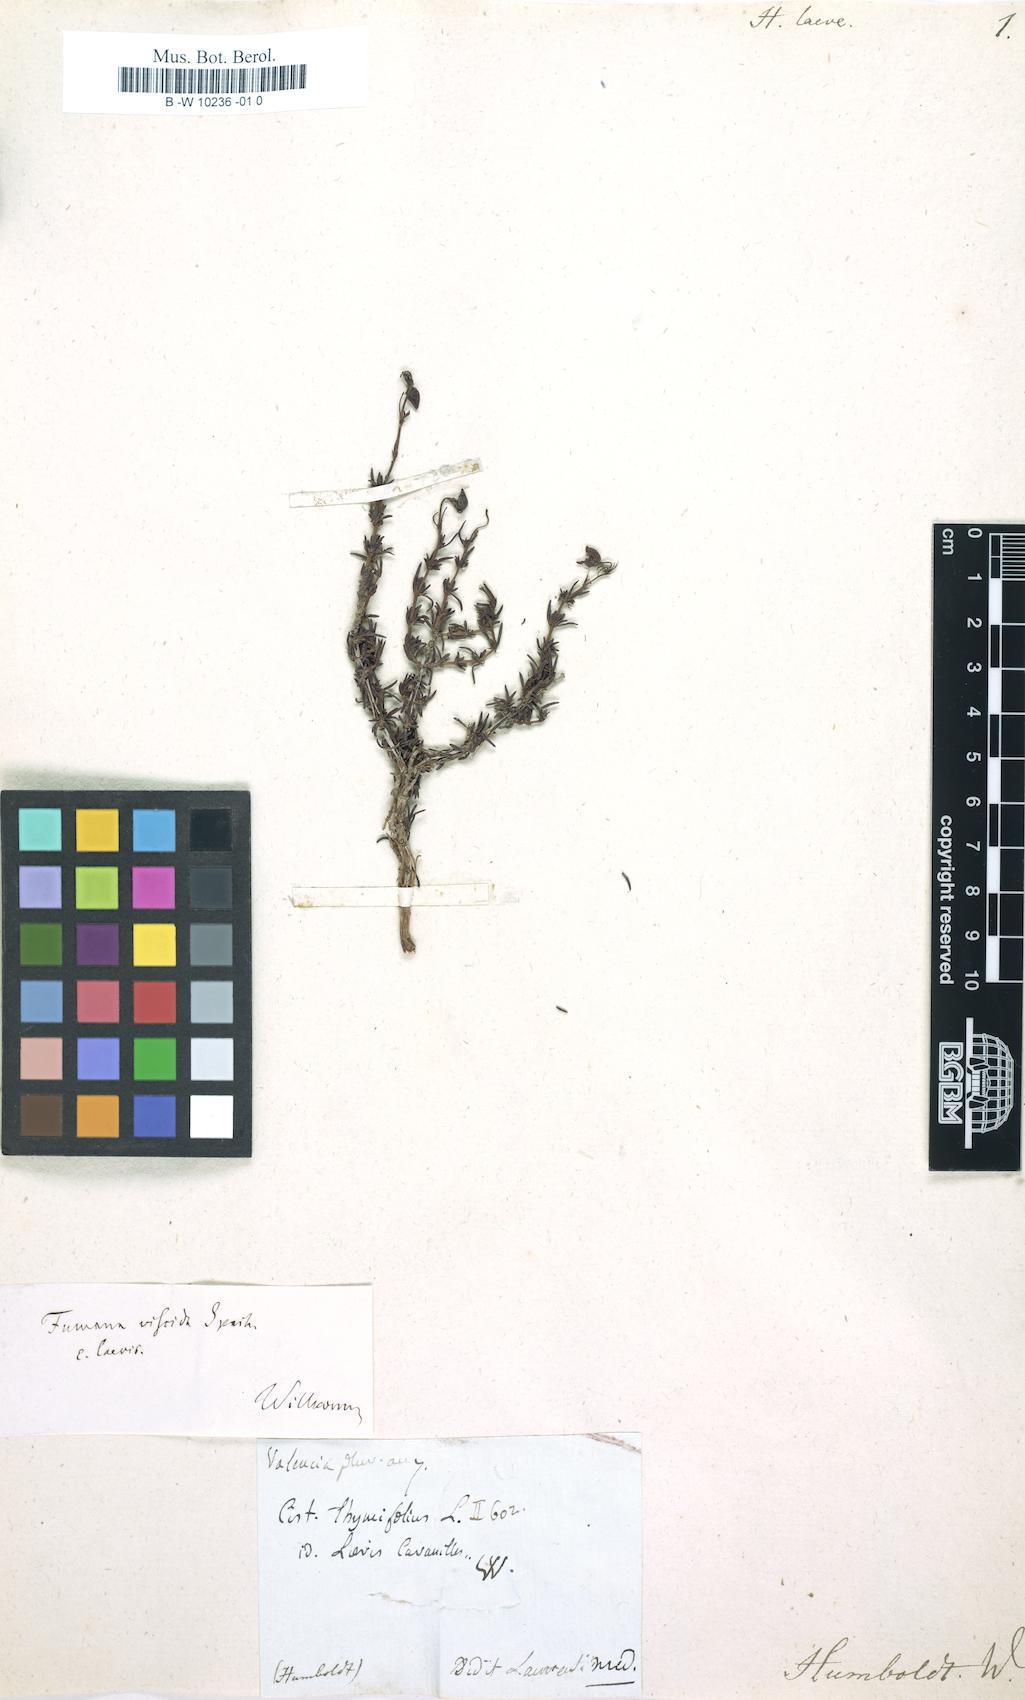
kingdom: Plantae
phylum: Tracheophyta
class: Magnoliopsida
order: Malvales
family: Cistaceae
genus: Fumana
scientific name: Fumana laevis
